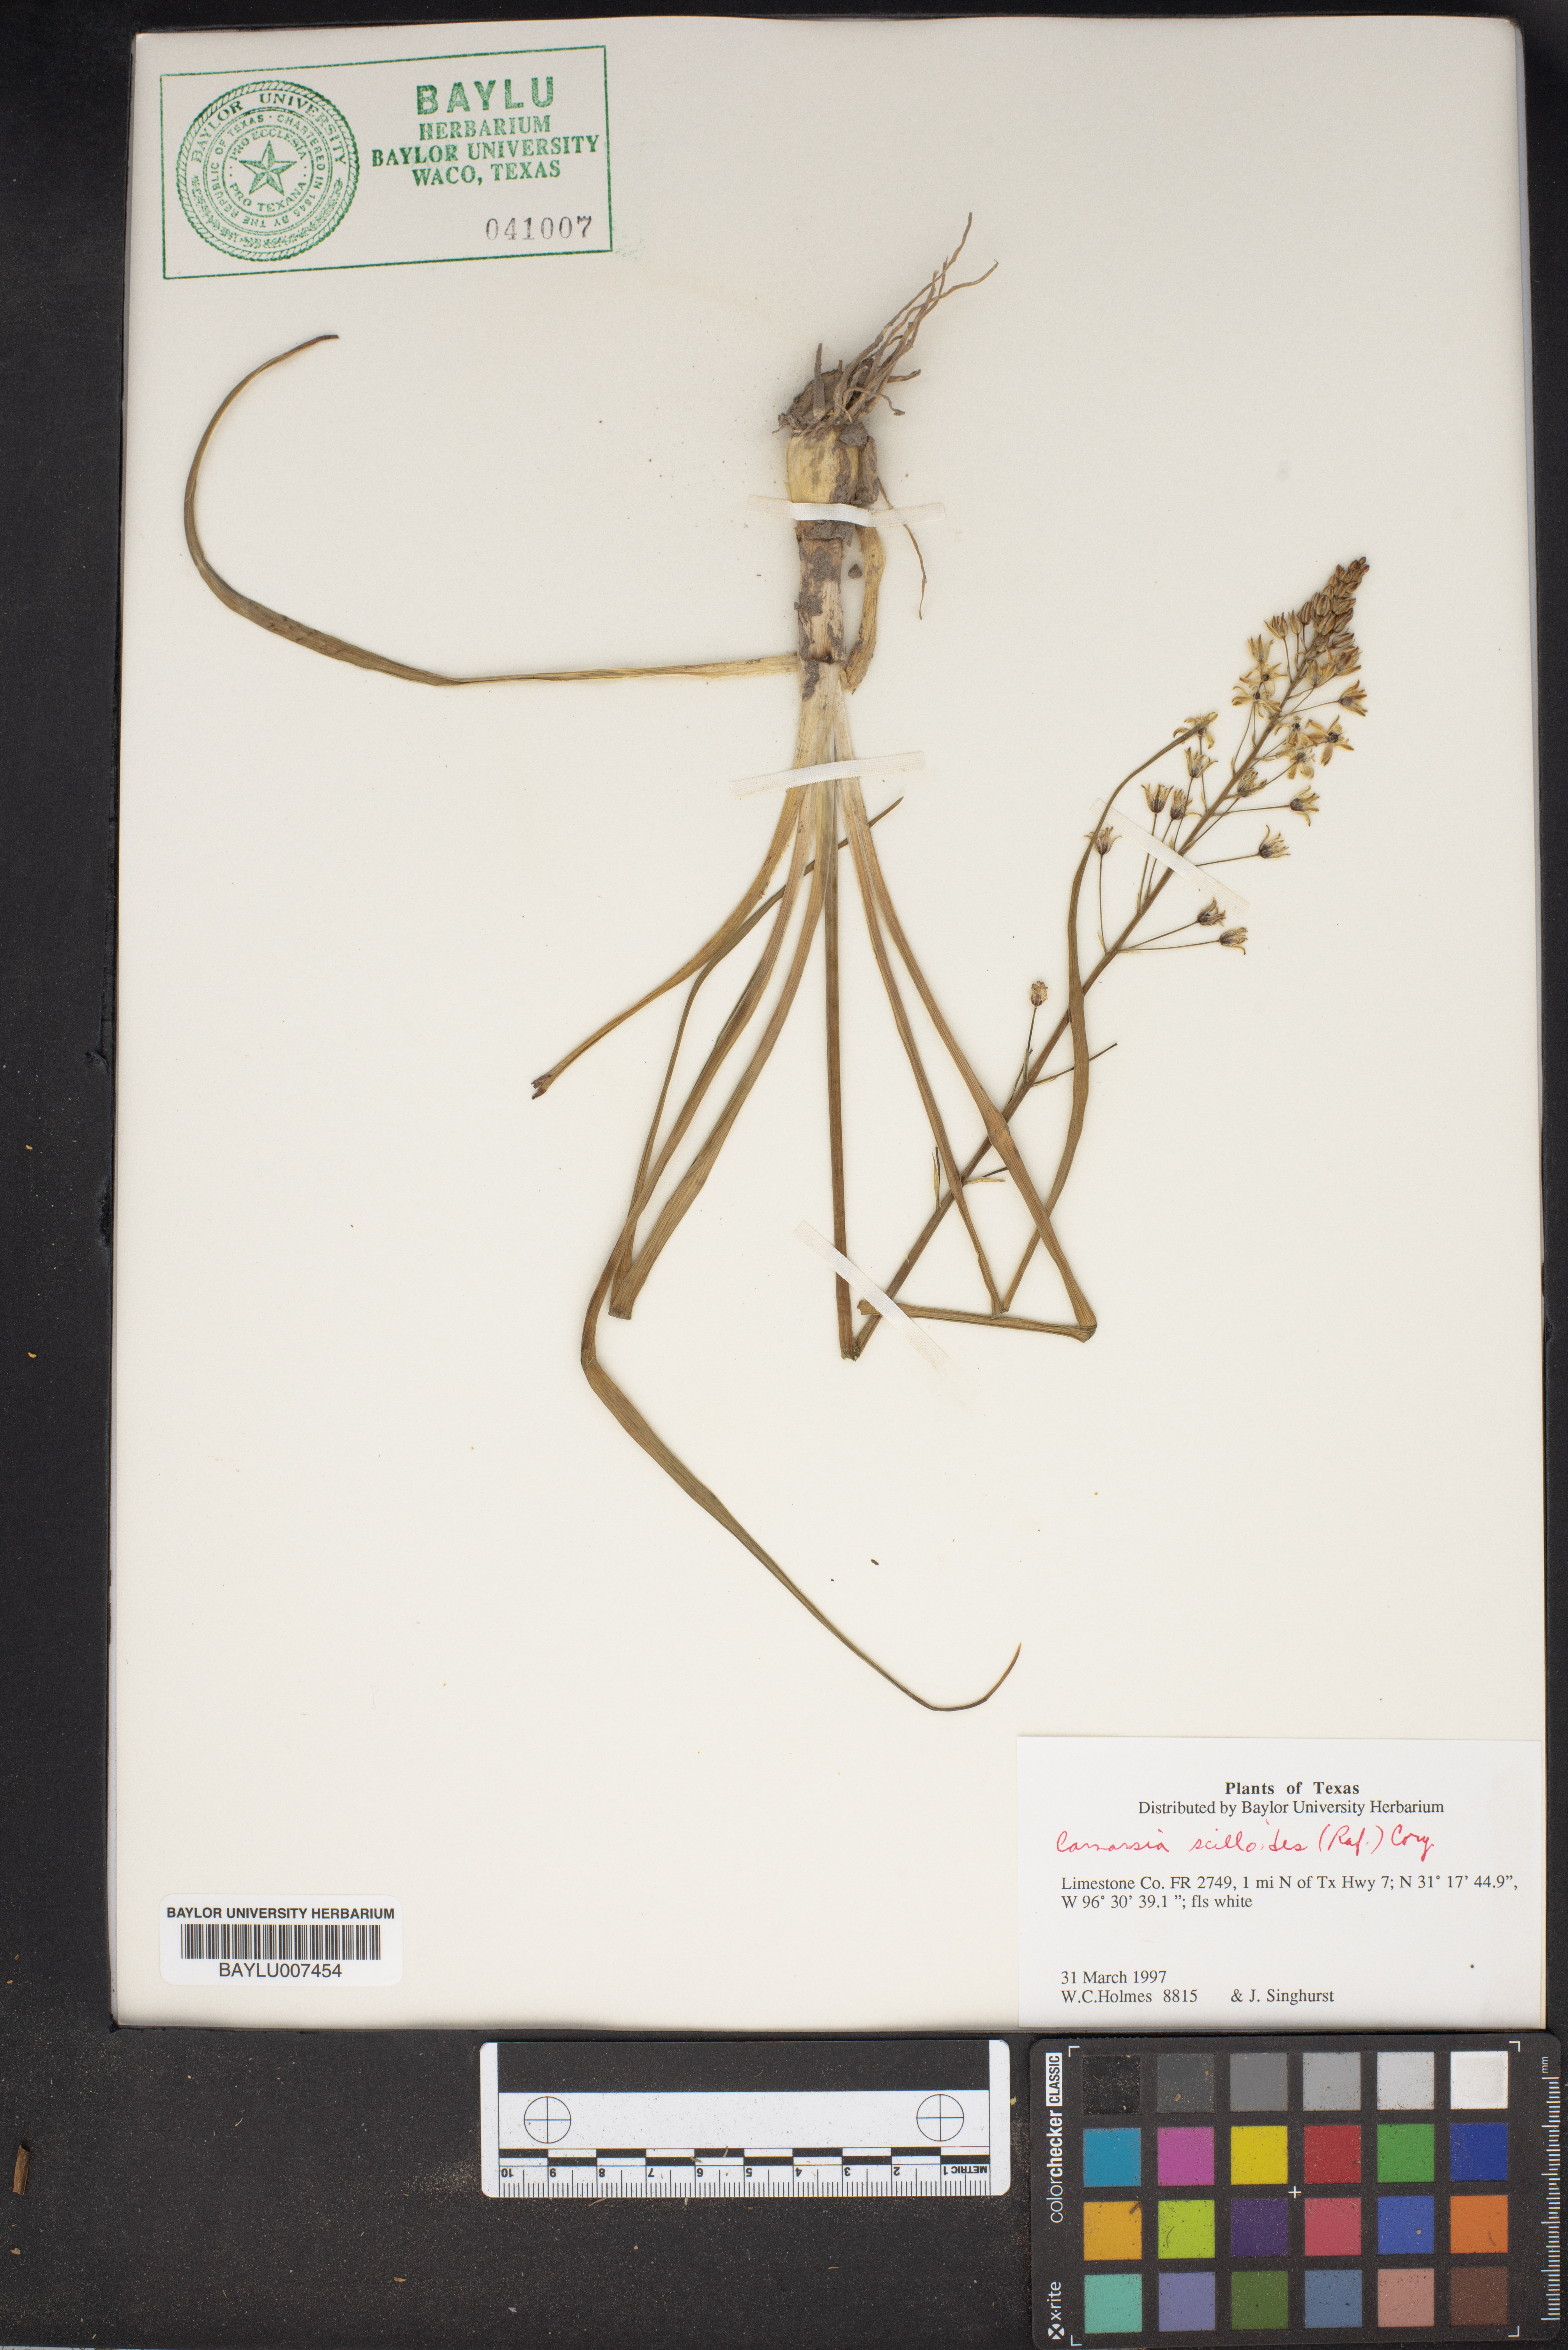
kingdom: Plantae
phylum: Tracheophyta
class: Liliopsida
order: Asparagales
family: Asparagaceae
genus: Camassia
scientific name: Camassia scilloides
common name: Wild hyacinth
